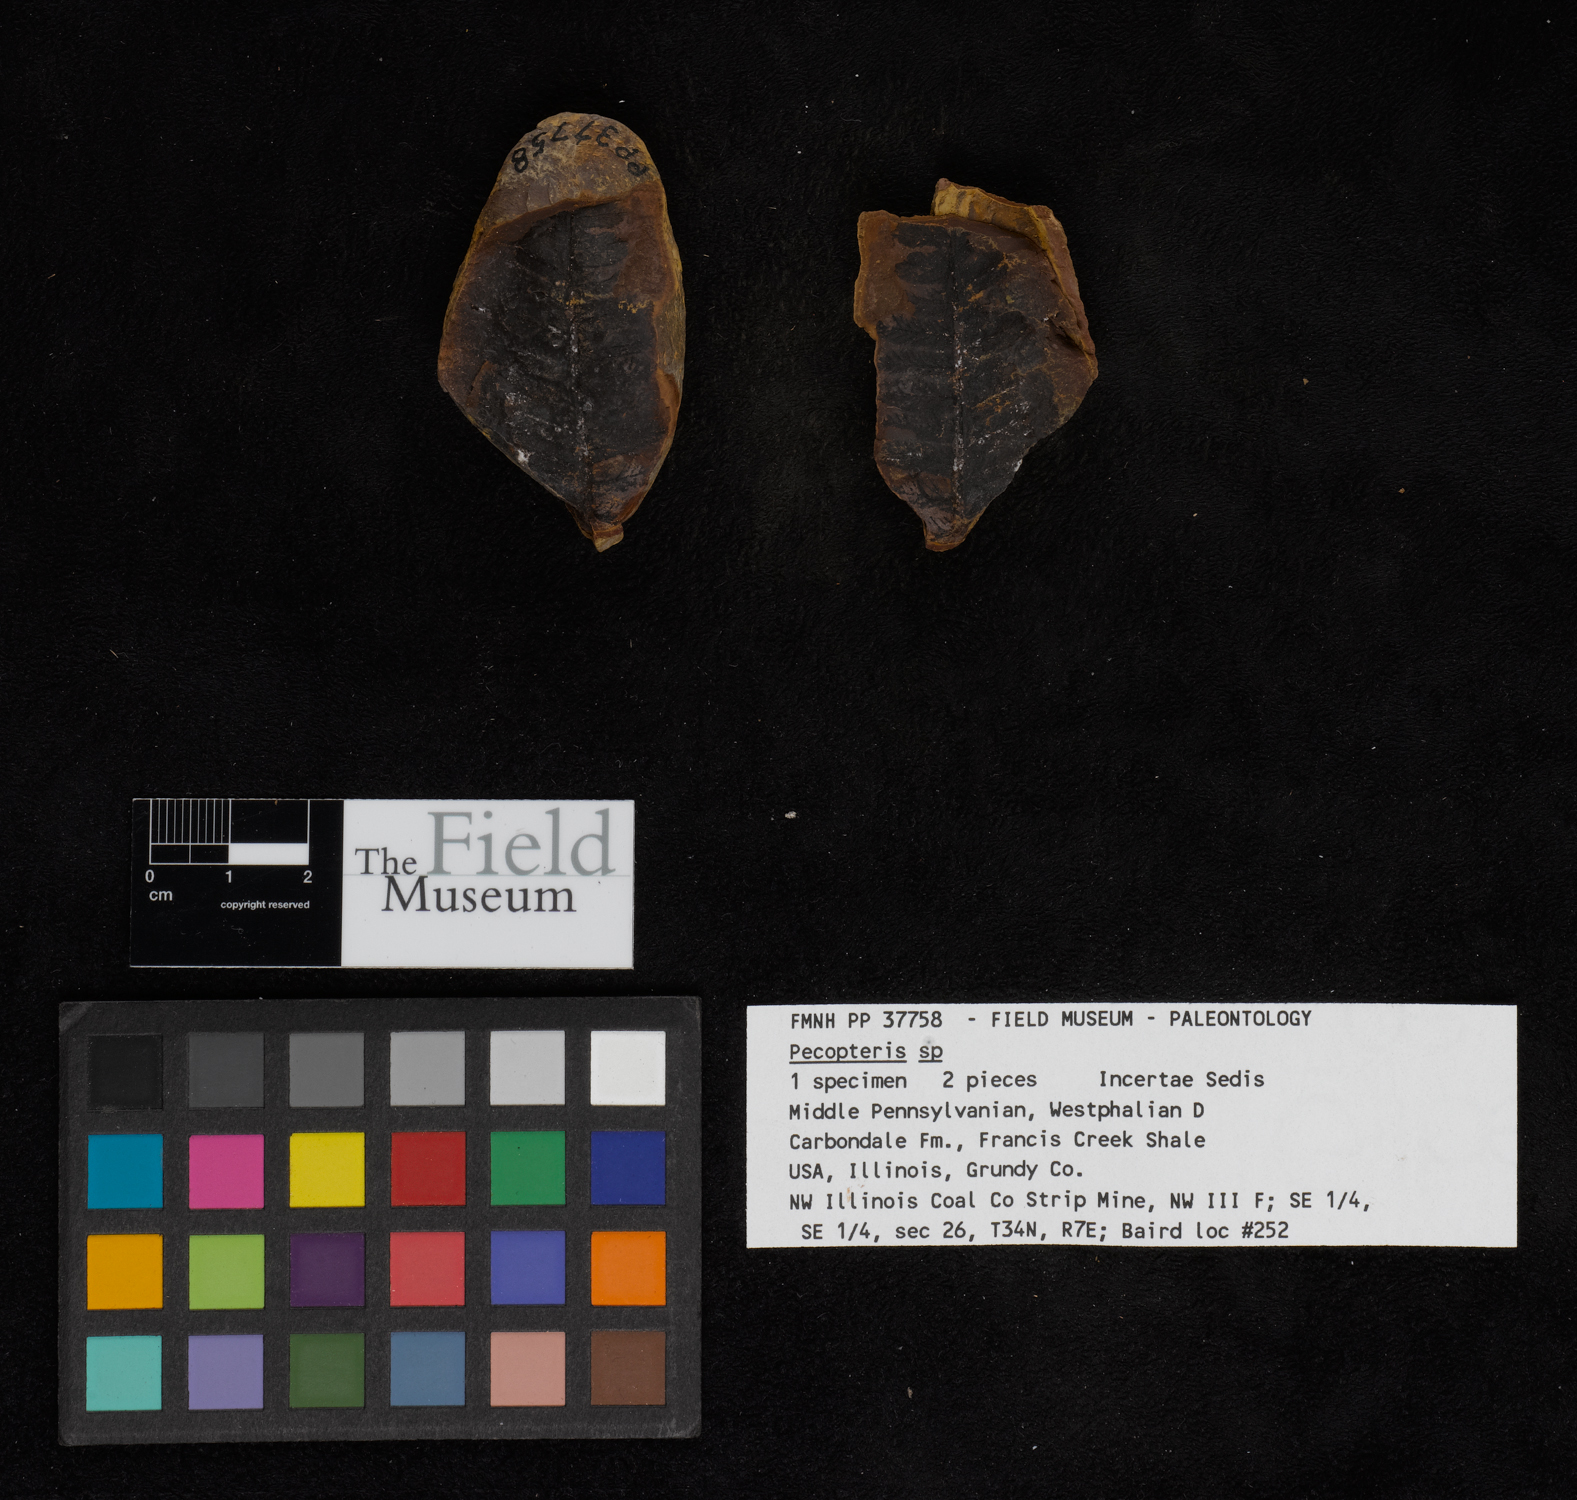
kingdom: Plantae
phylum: Tracheophyta
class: Polypodiopsida
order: Marattiales
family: Asterothecaceae
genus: Pecopteris
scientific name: Pecopteris
